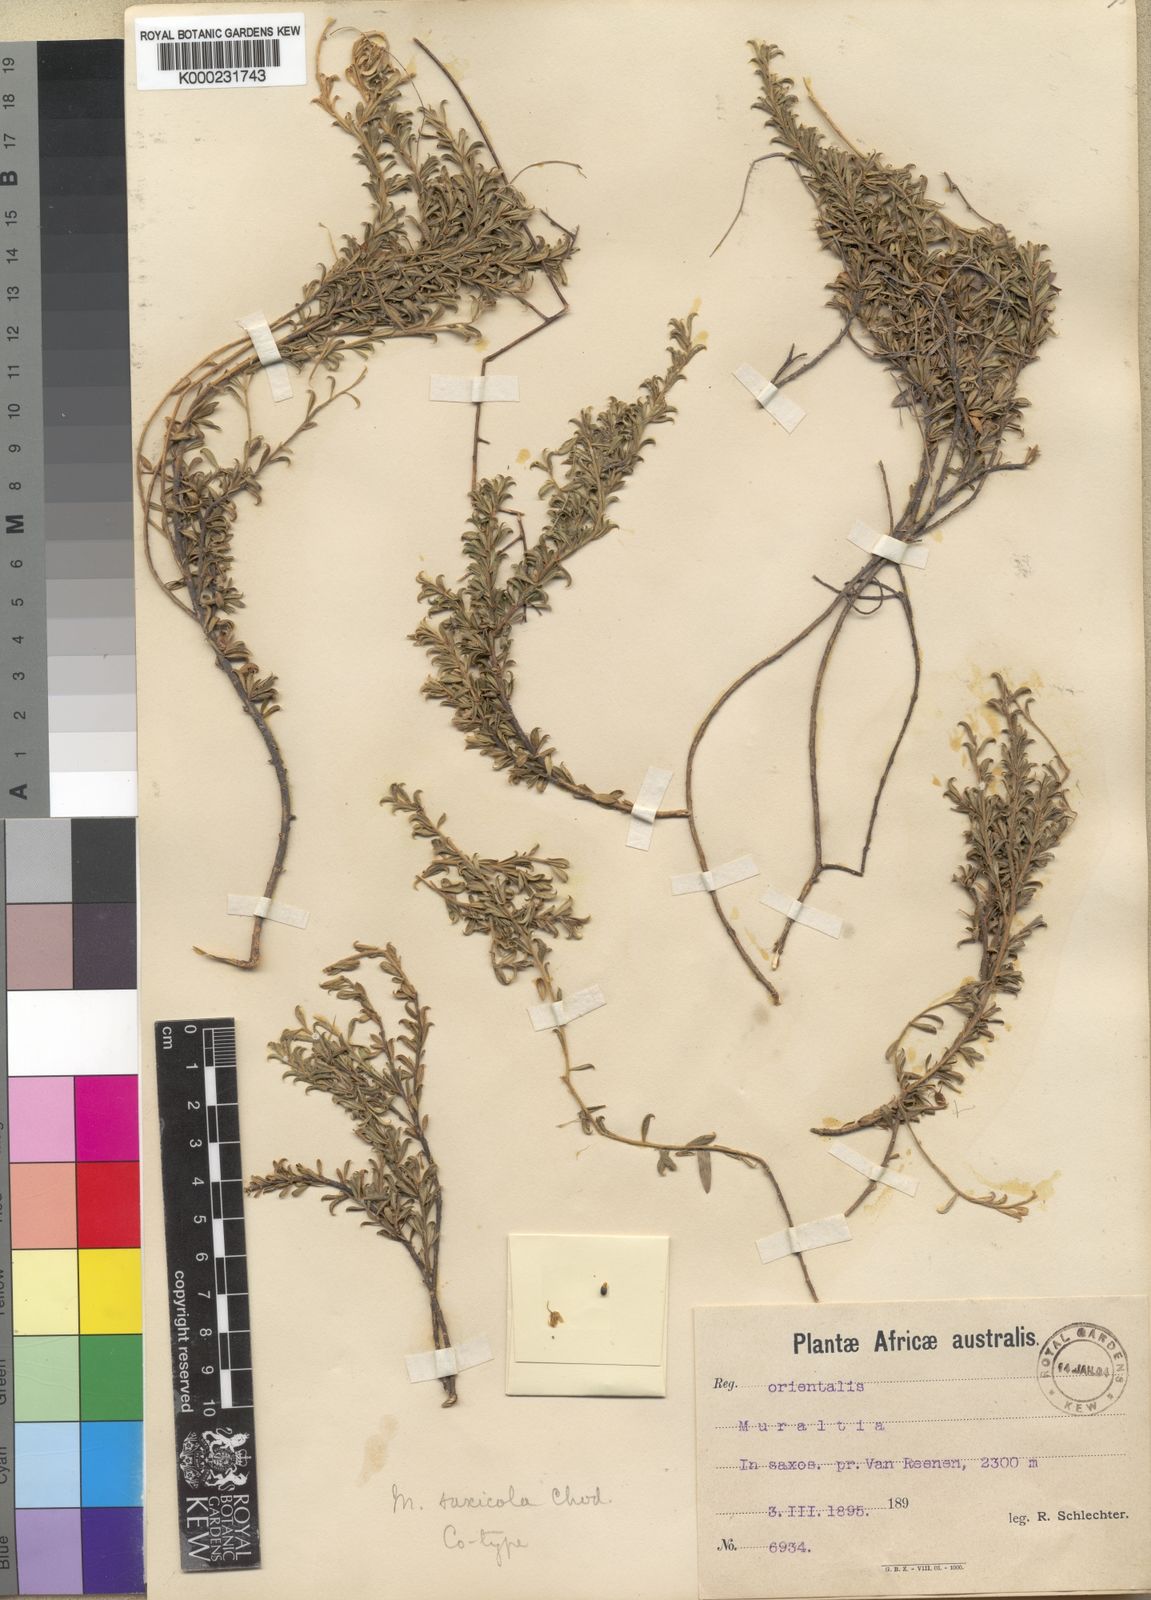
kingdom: Plantae
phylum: Tracheophyta
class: Magnoliopsida
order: Fabales
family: Polygalaceae
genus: Muraltia
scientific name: Muraltia saxicola
